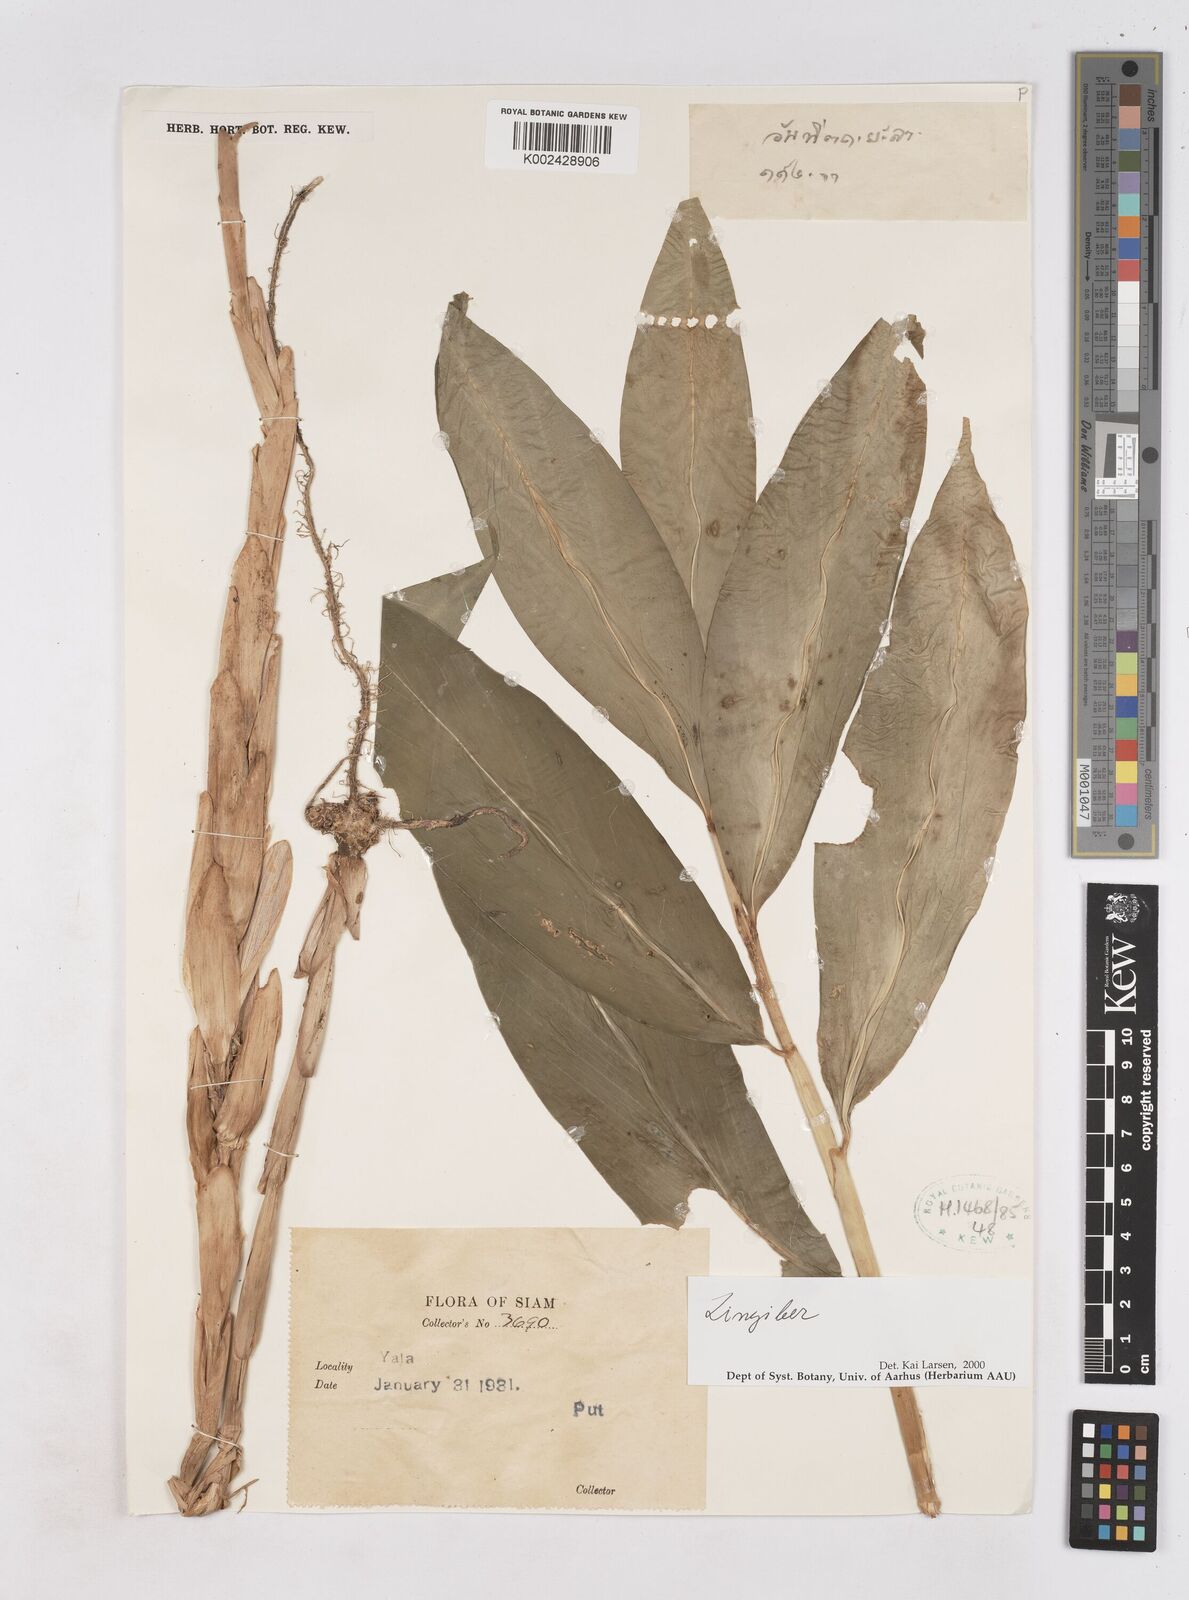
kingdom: Plantae
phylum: Tracheophyta
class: Liliopsida
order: Zingiberales
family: Zingiberaceae
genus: Zingiber
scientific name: Zingiber gracile
